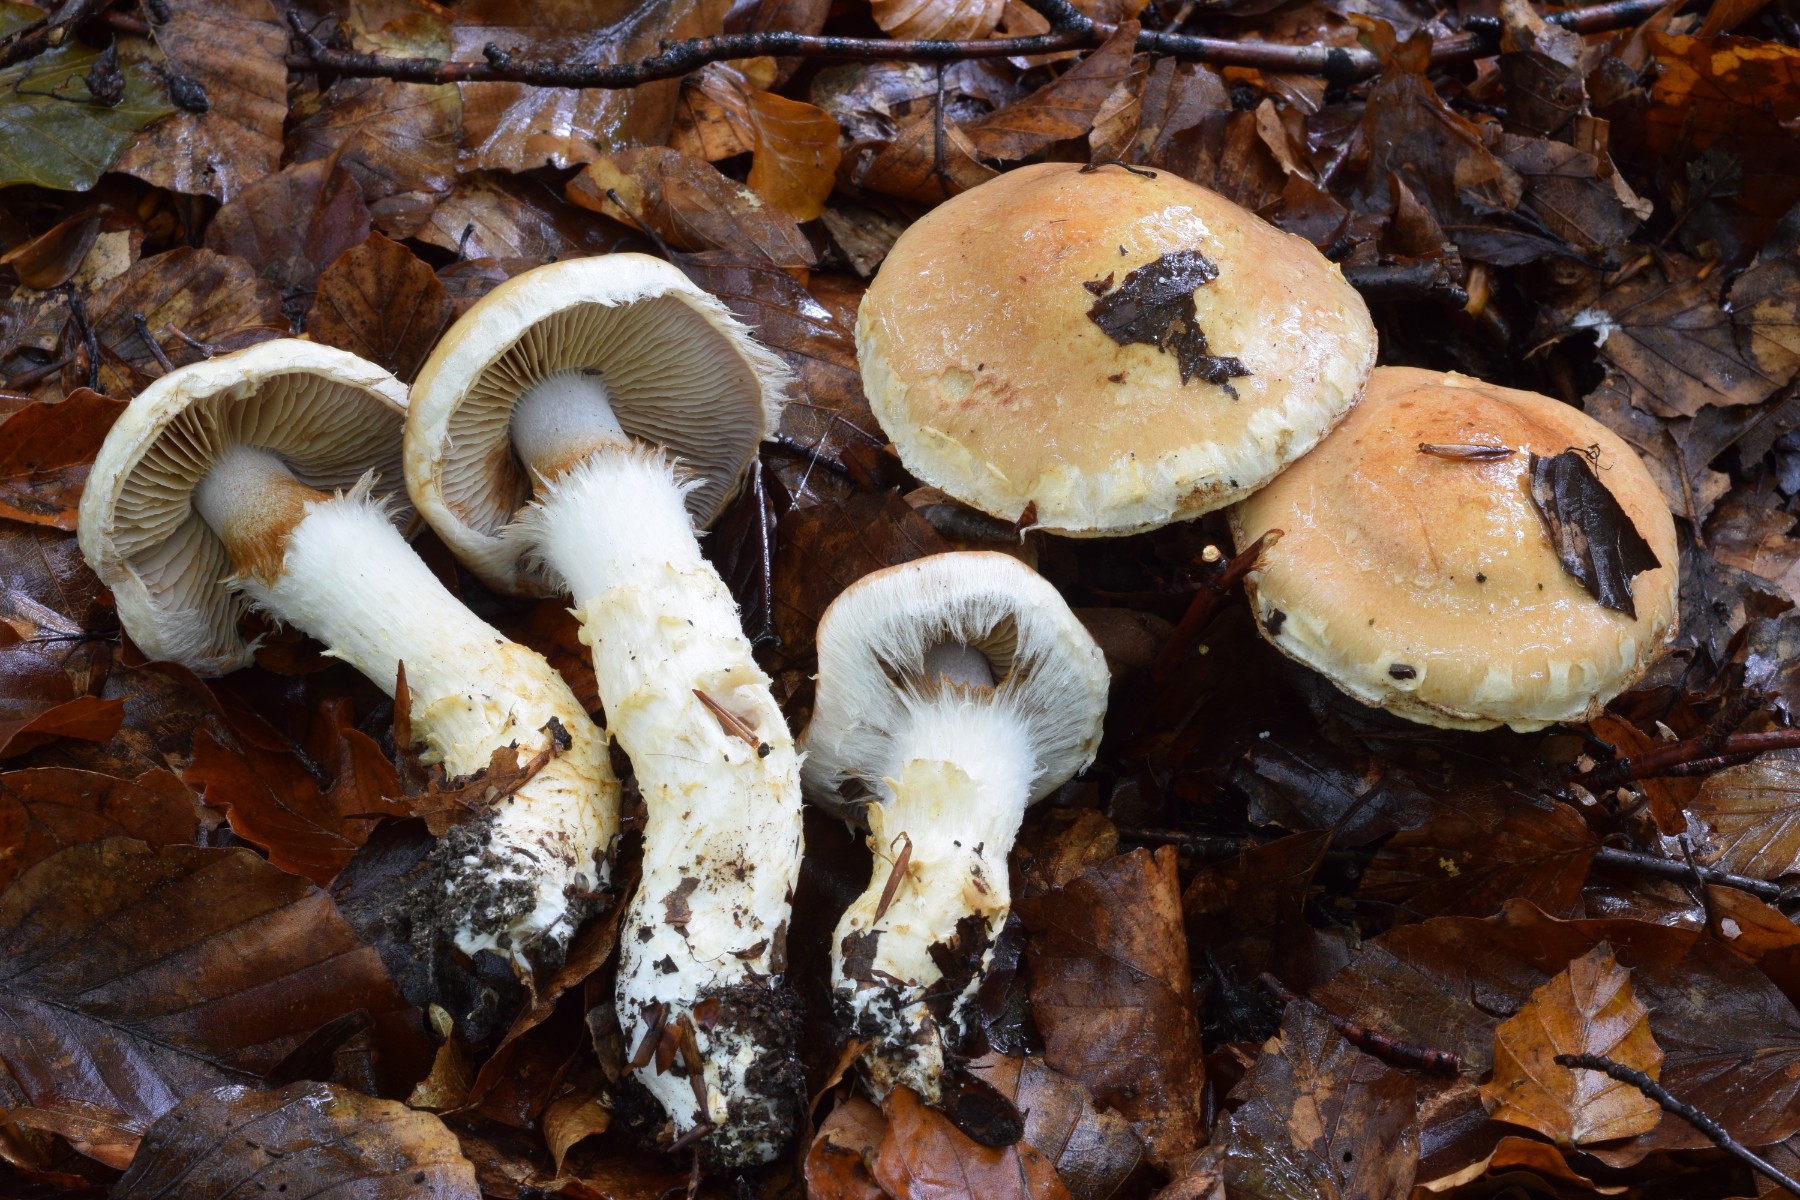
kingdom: Fungi
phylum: Basidiomycota
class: Agaricomycetes
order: Agaricales
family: Cortinariaceae
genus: Phlegmacium
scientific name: Phlegmacium vulpinum
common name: ringbæltet slørhat
